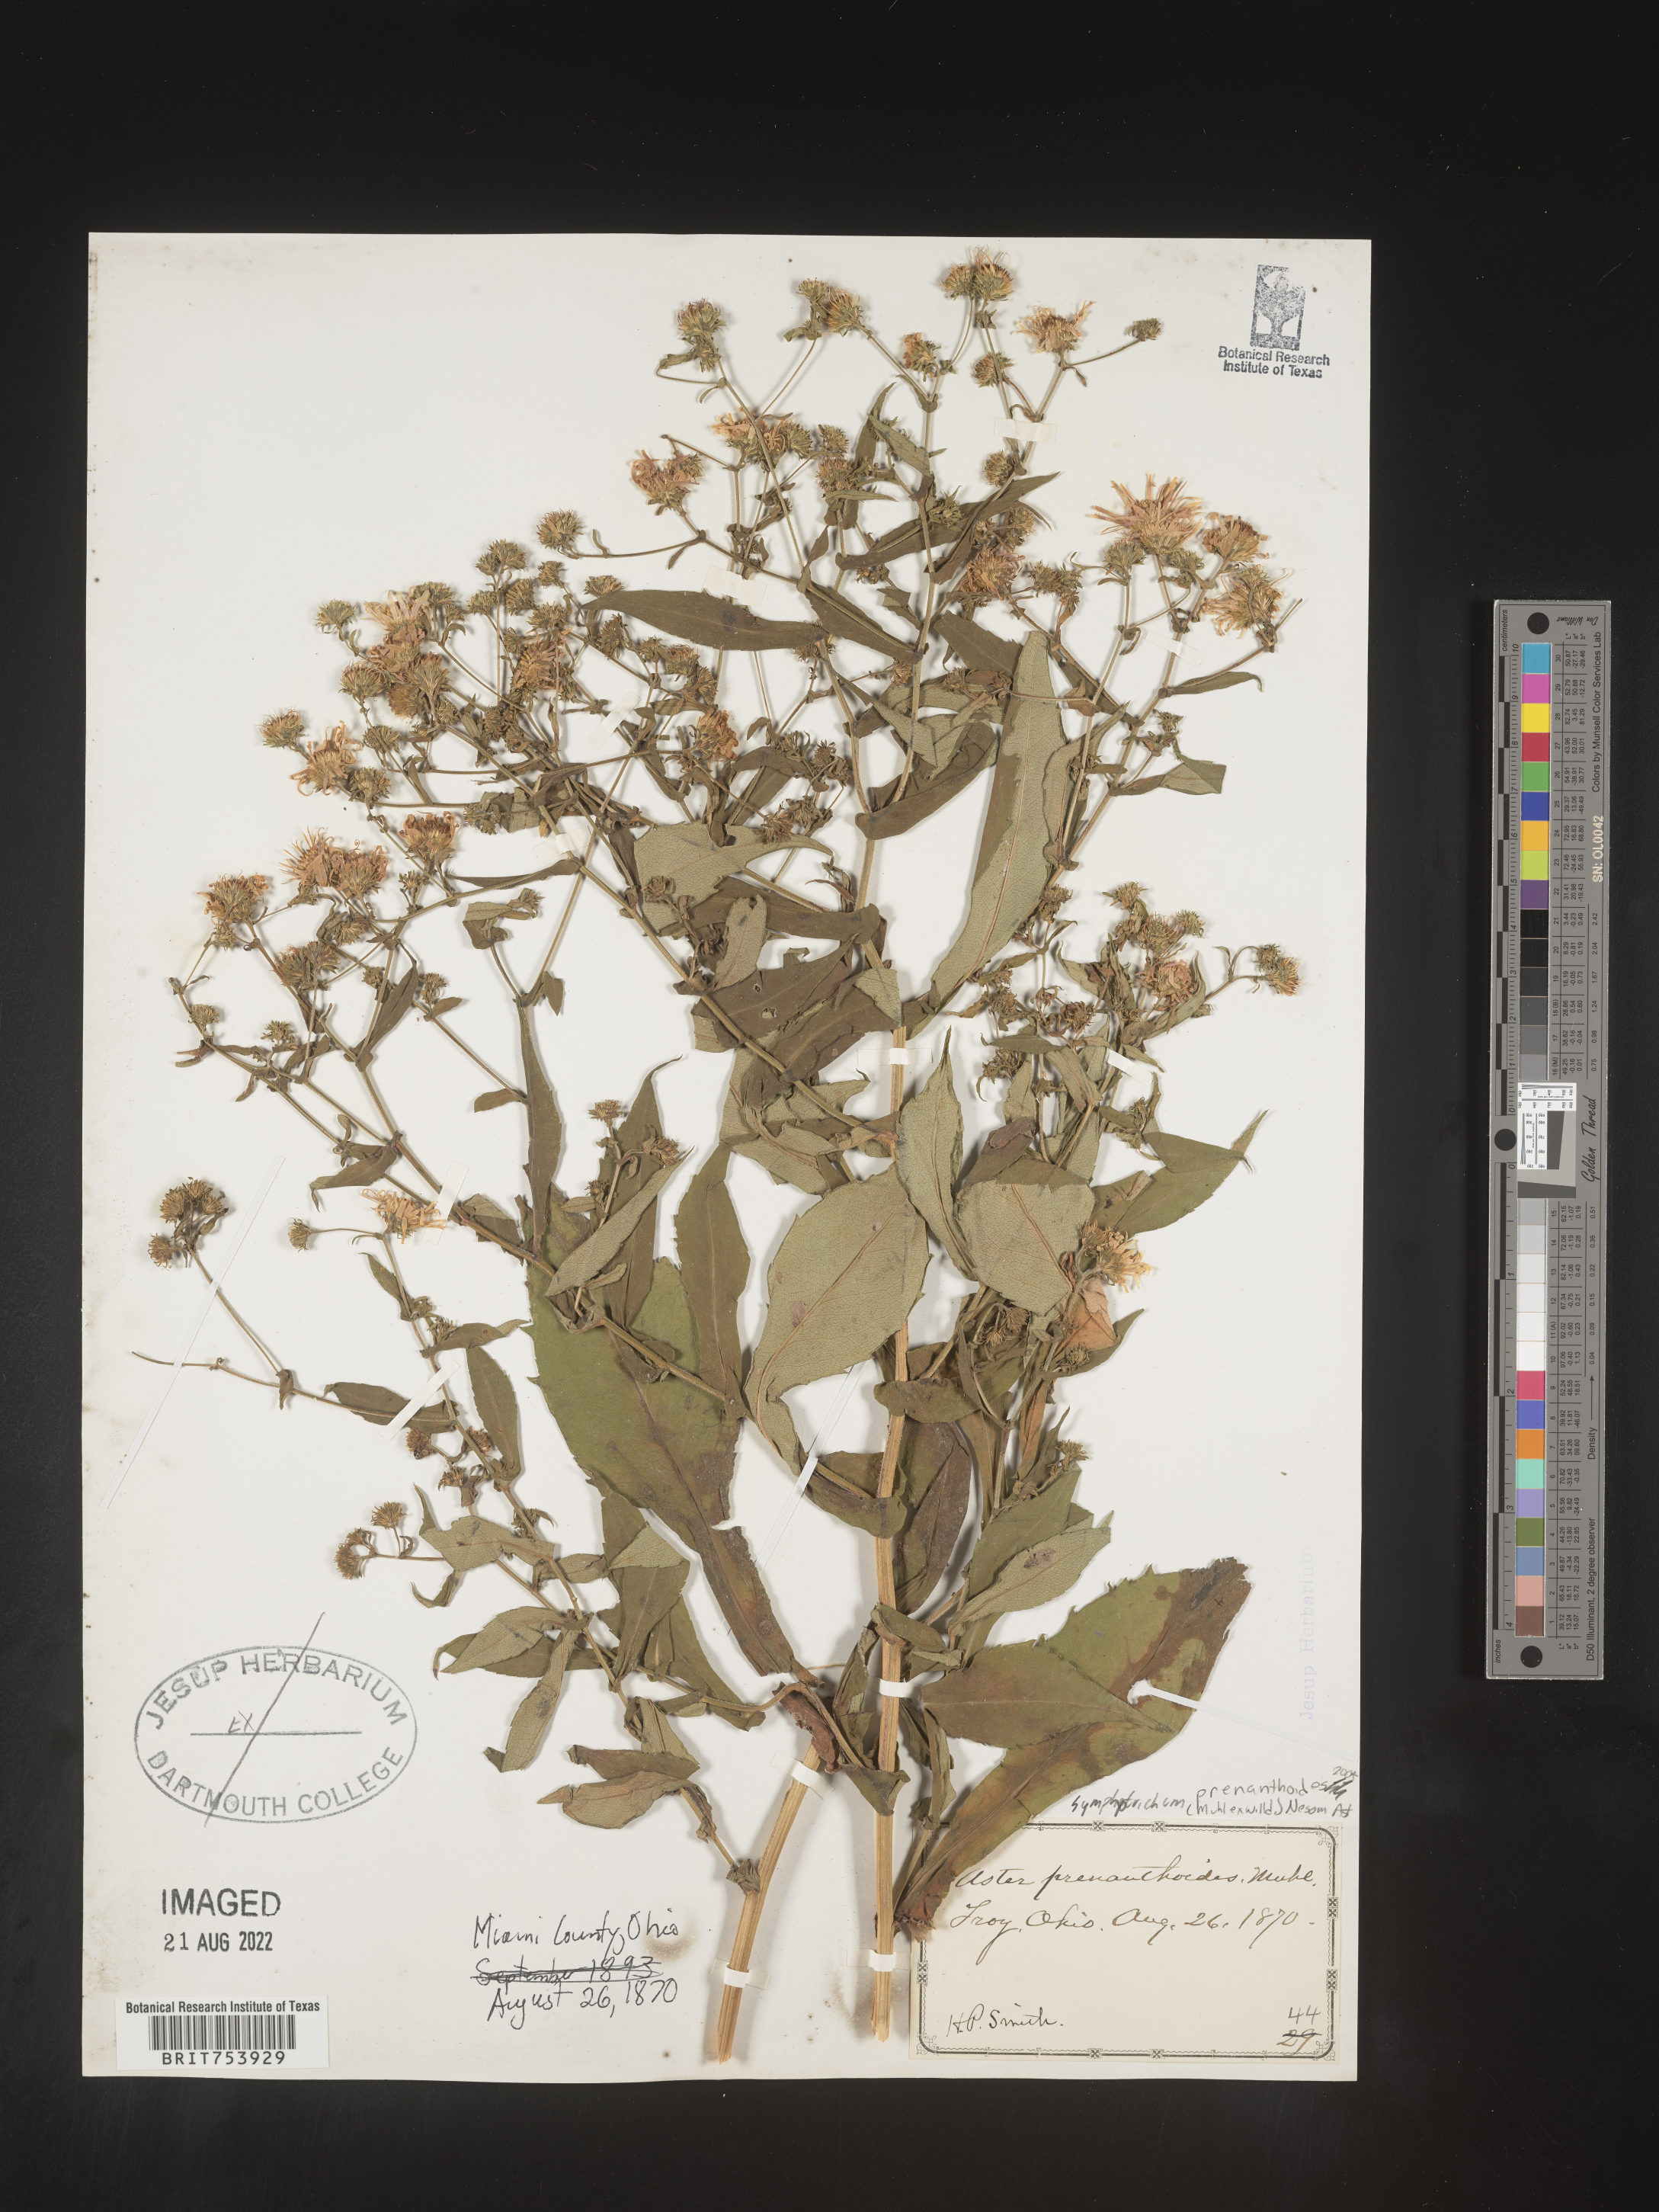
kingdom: Plantae
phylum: Tracheophyta
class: Magnoliopsida
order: Asterales
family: Asteraceae
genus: Symphyotrichum
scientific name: Symphyotrichum prenanthoides
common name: Crooked-stem aster
